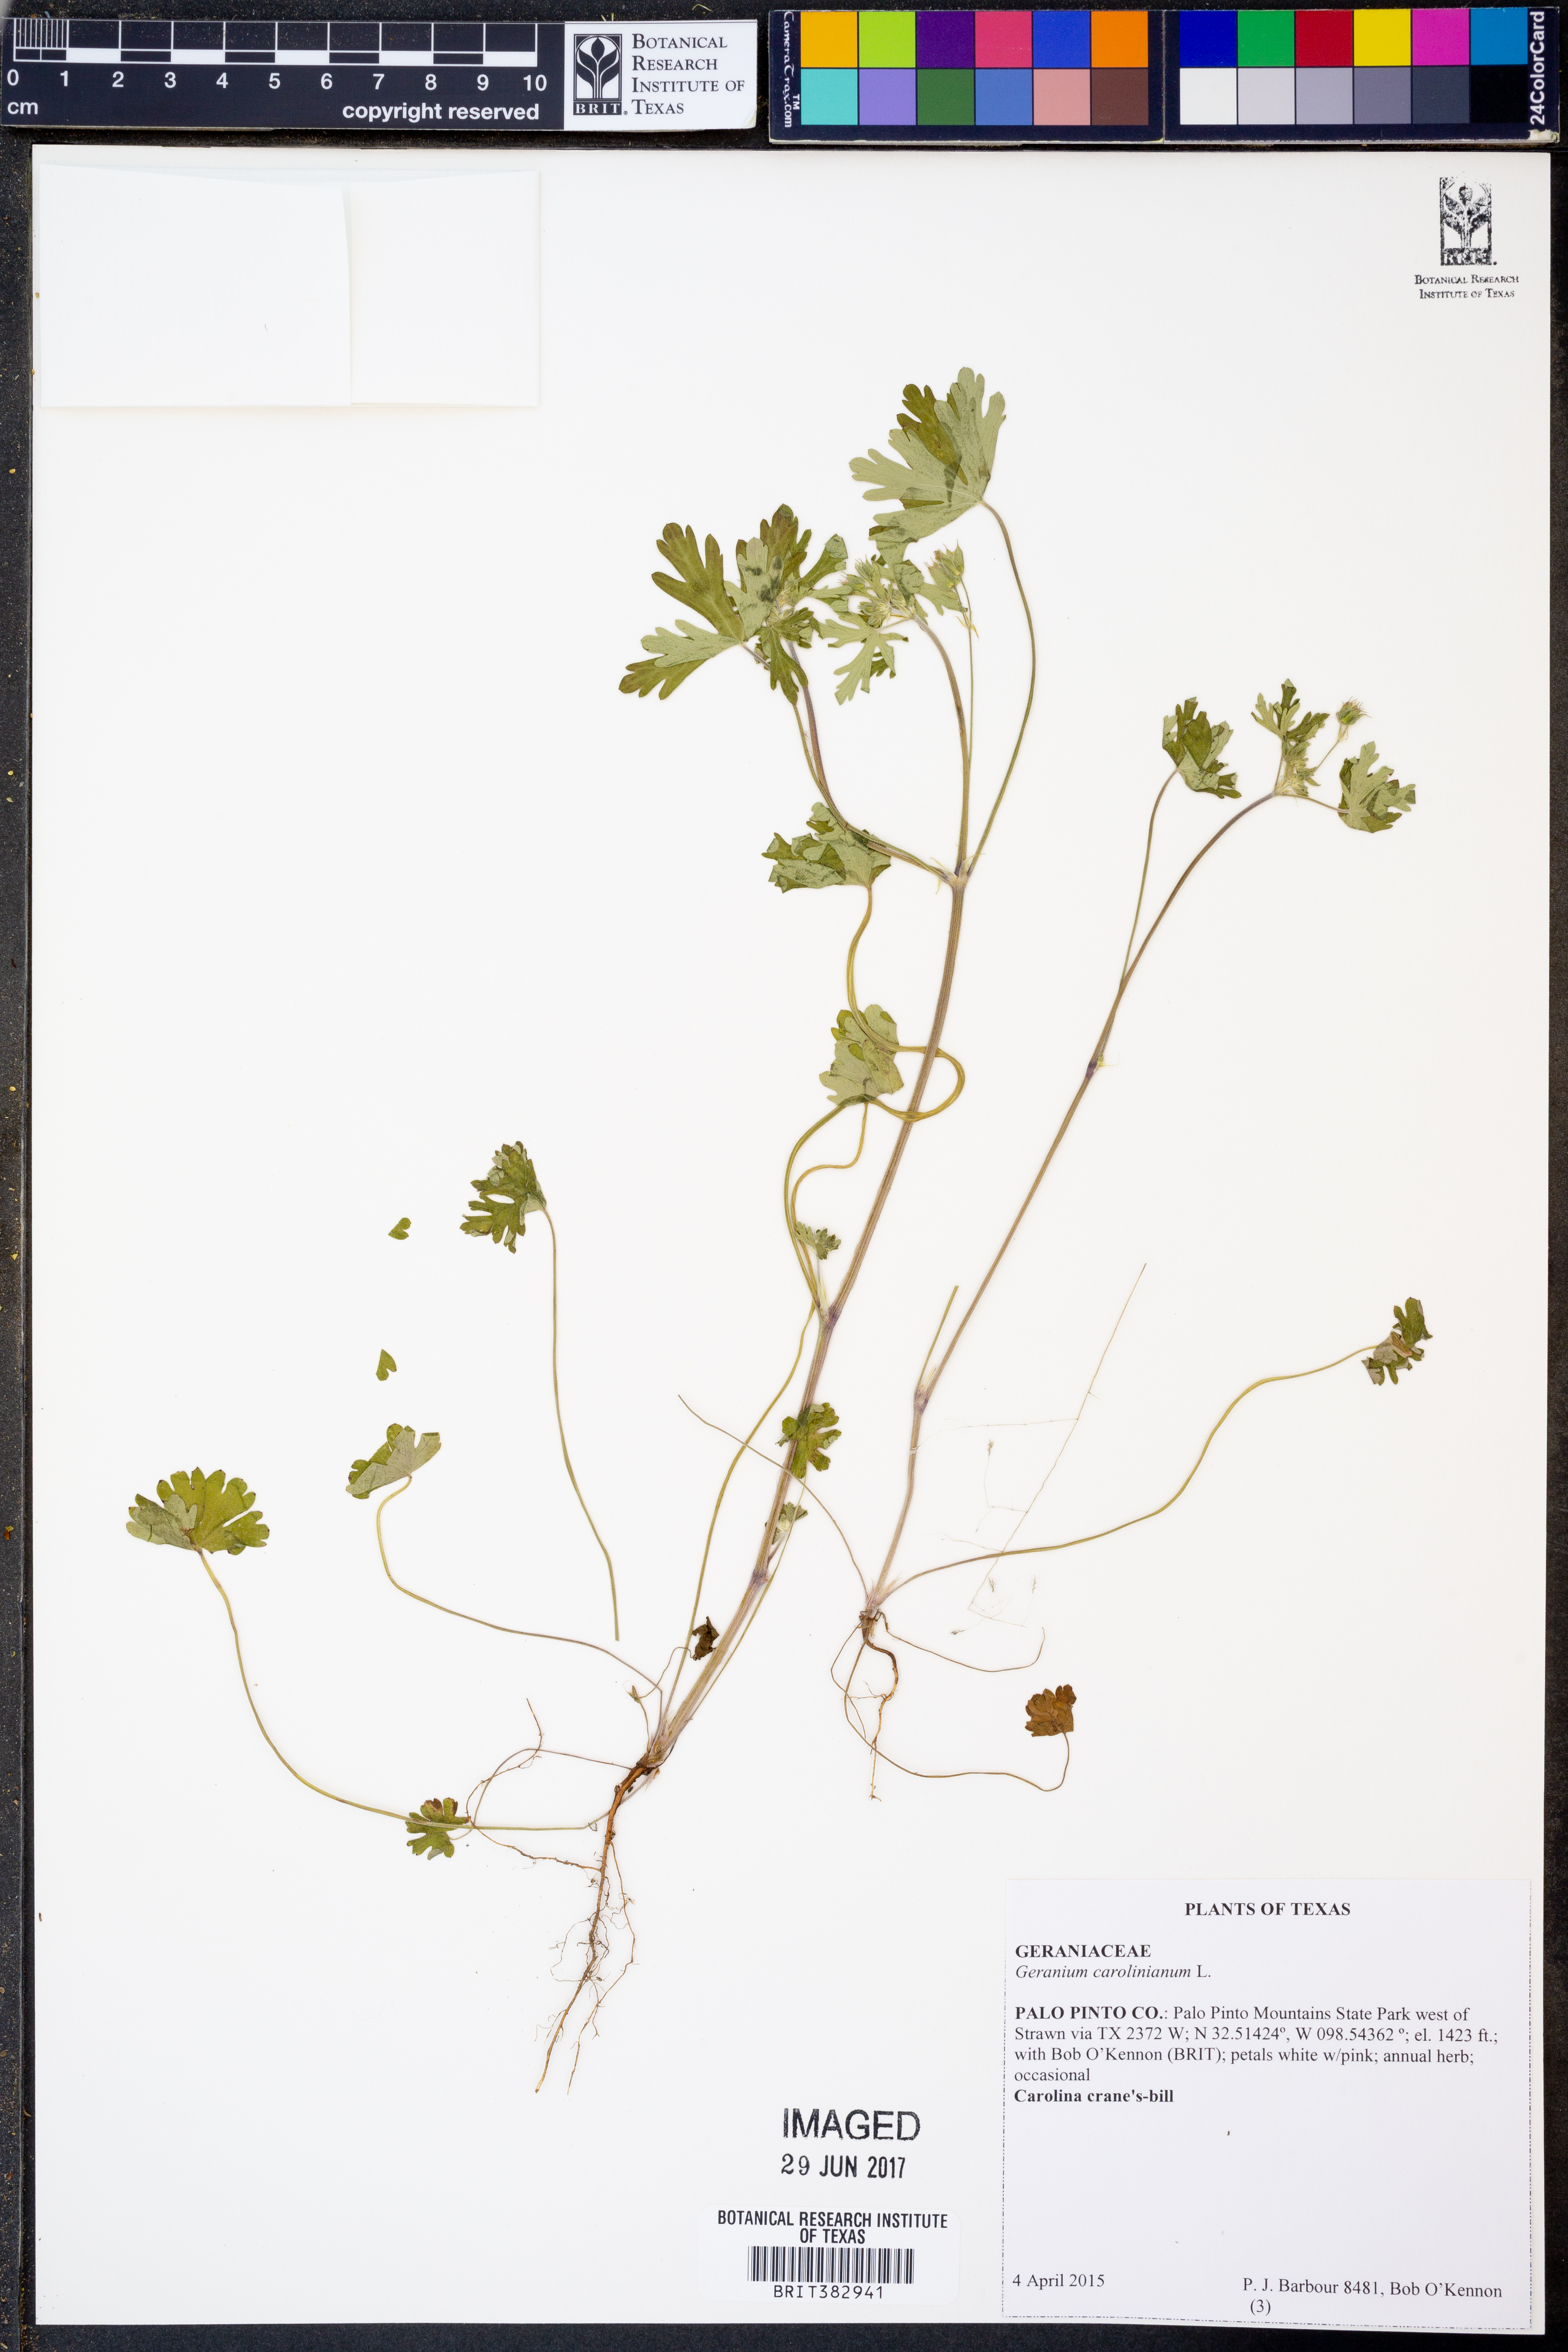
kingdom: Plantae
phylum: Tracheophyta
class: Magnoliopsida
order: Geraniales
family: Geraniaceae
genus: Geranium
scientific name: Geranium carolinianum
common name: Carolina crane's-bill
